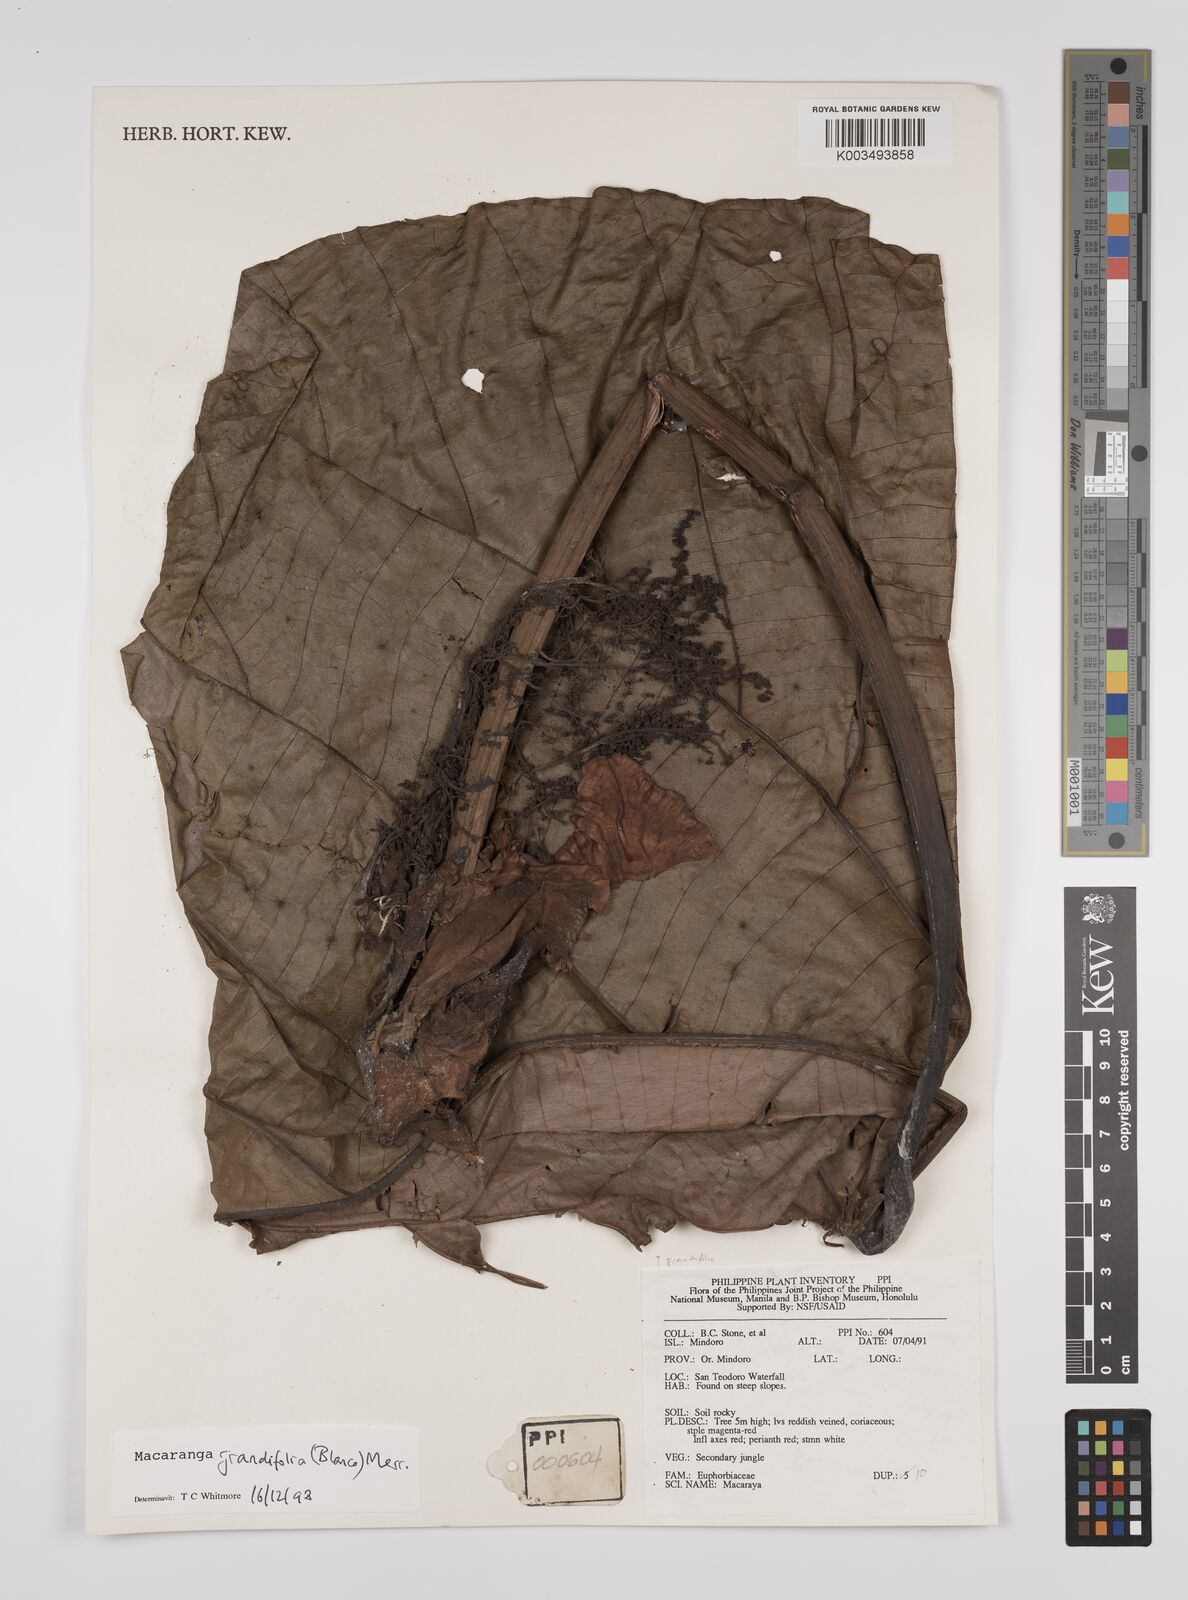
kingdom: Plantae
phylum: Tracheophyta
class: Magnoliopsida
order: Malpighiales
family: Euphorbiaceae
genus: Macaranga
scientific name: Macaranga grandifolia
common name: Coraltree
